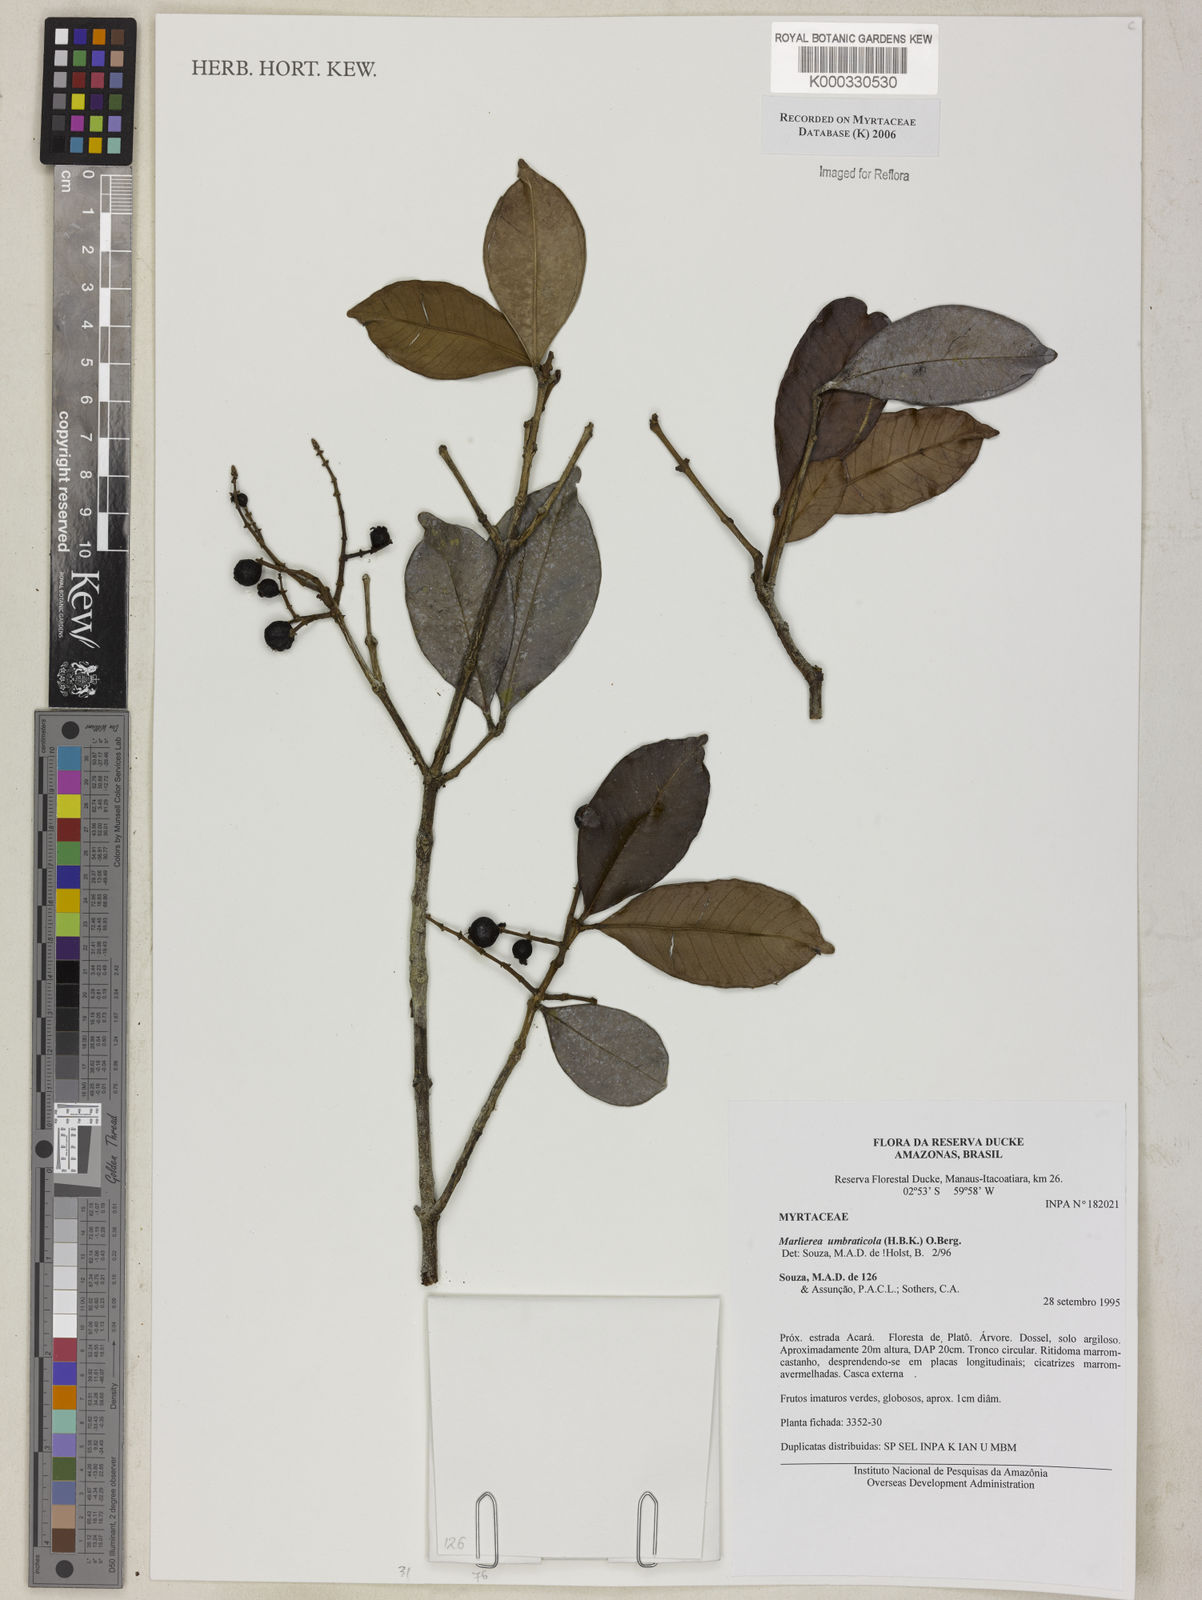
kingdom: Plantae
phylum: Tracheophyta
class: Magnoliopsida
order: Myrtales
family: Myrtaceae
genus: Myrcia
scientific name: Myrcia umbraticola
